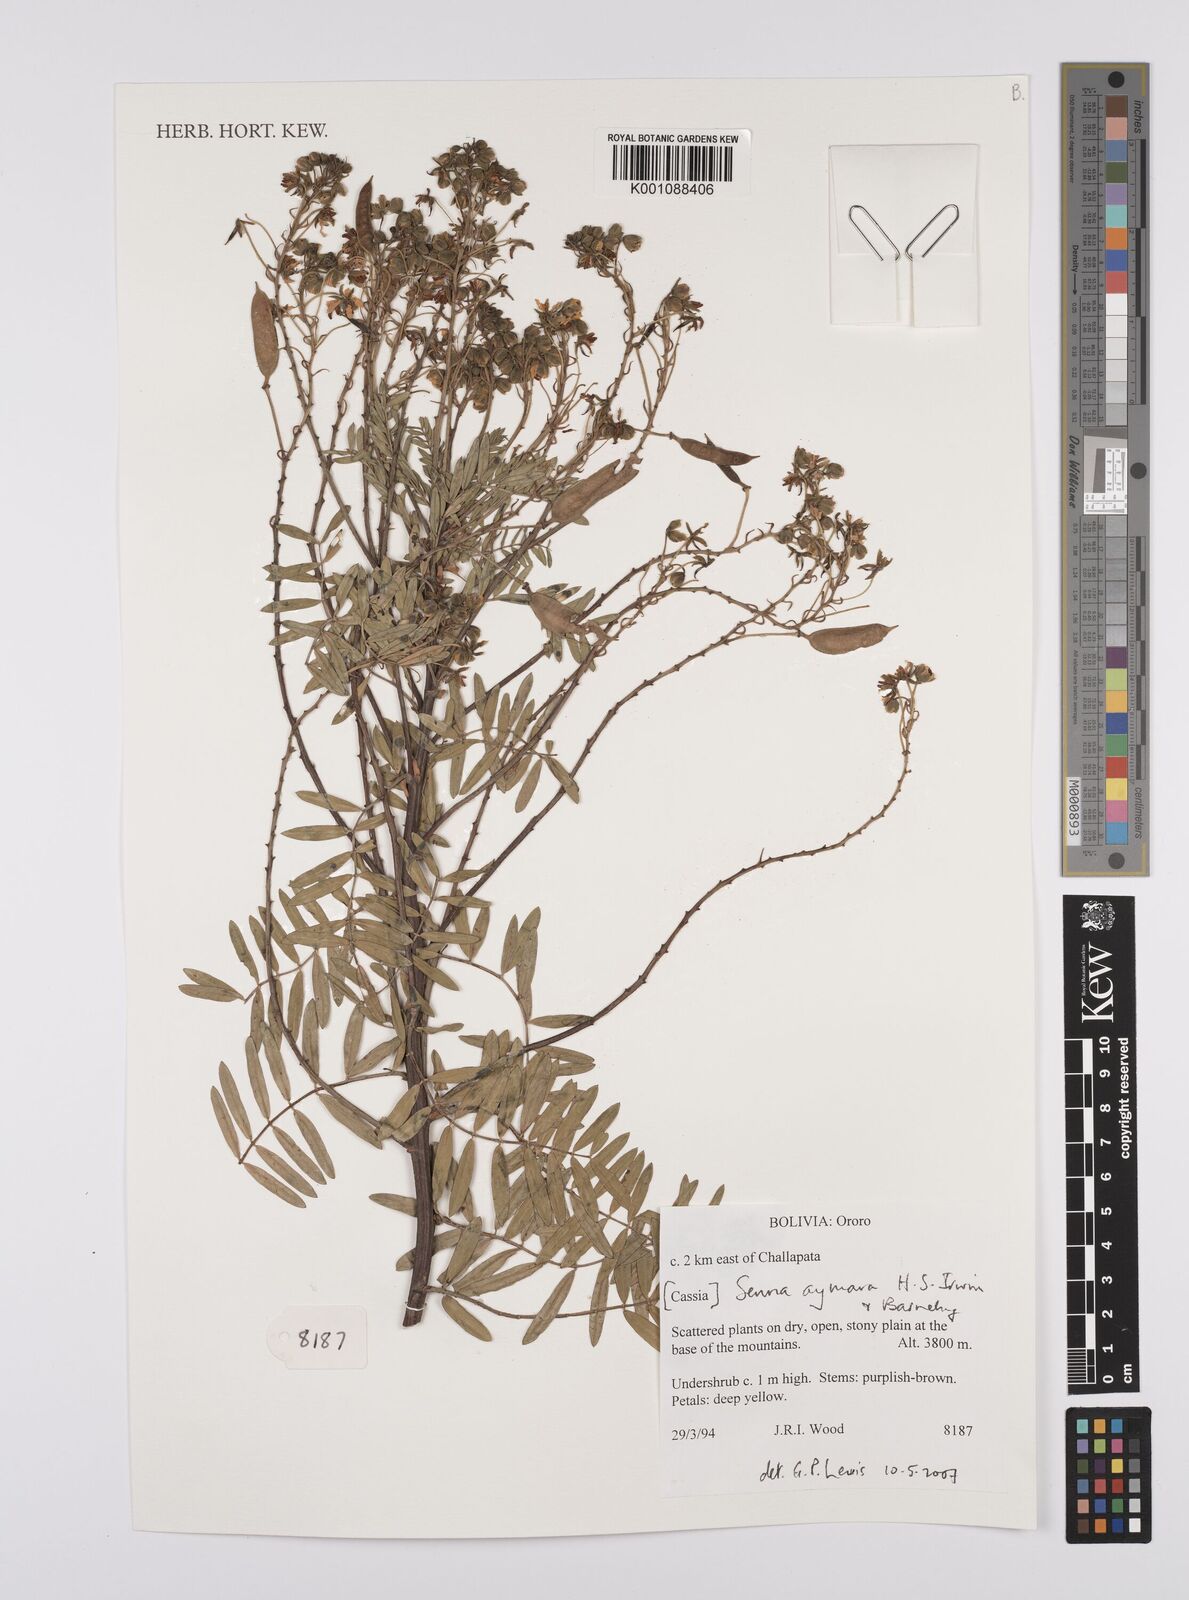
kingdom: Plantae
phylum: Tracheophyta
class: Magnoliopsida
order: Fabales
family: Fabaceae
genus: Senna
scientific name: Senna aymara
